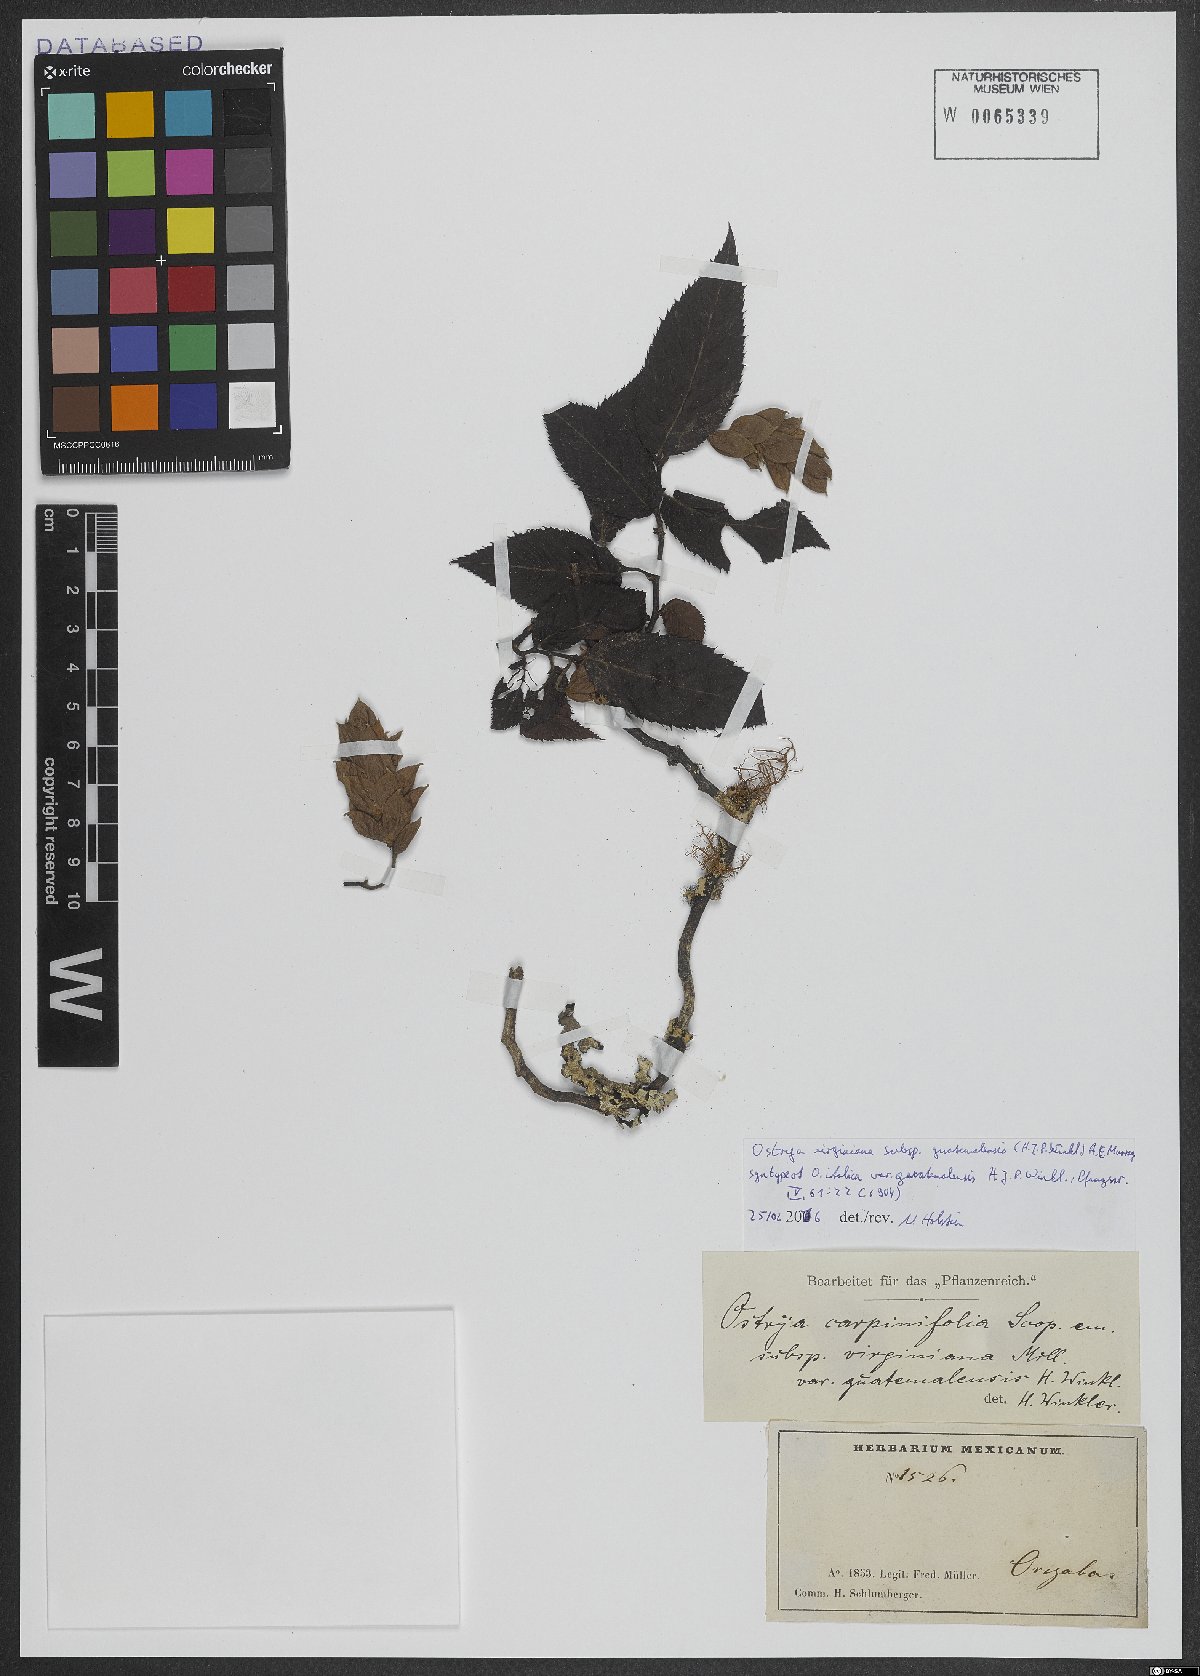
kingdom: Plantae
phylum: Tracheophyta
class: Magnoliopsida
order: Fagales
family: Betulaceae
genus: Ostrya
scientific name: Ostrya virginiana
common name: Ironwood
